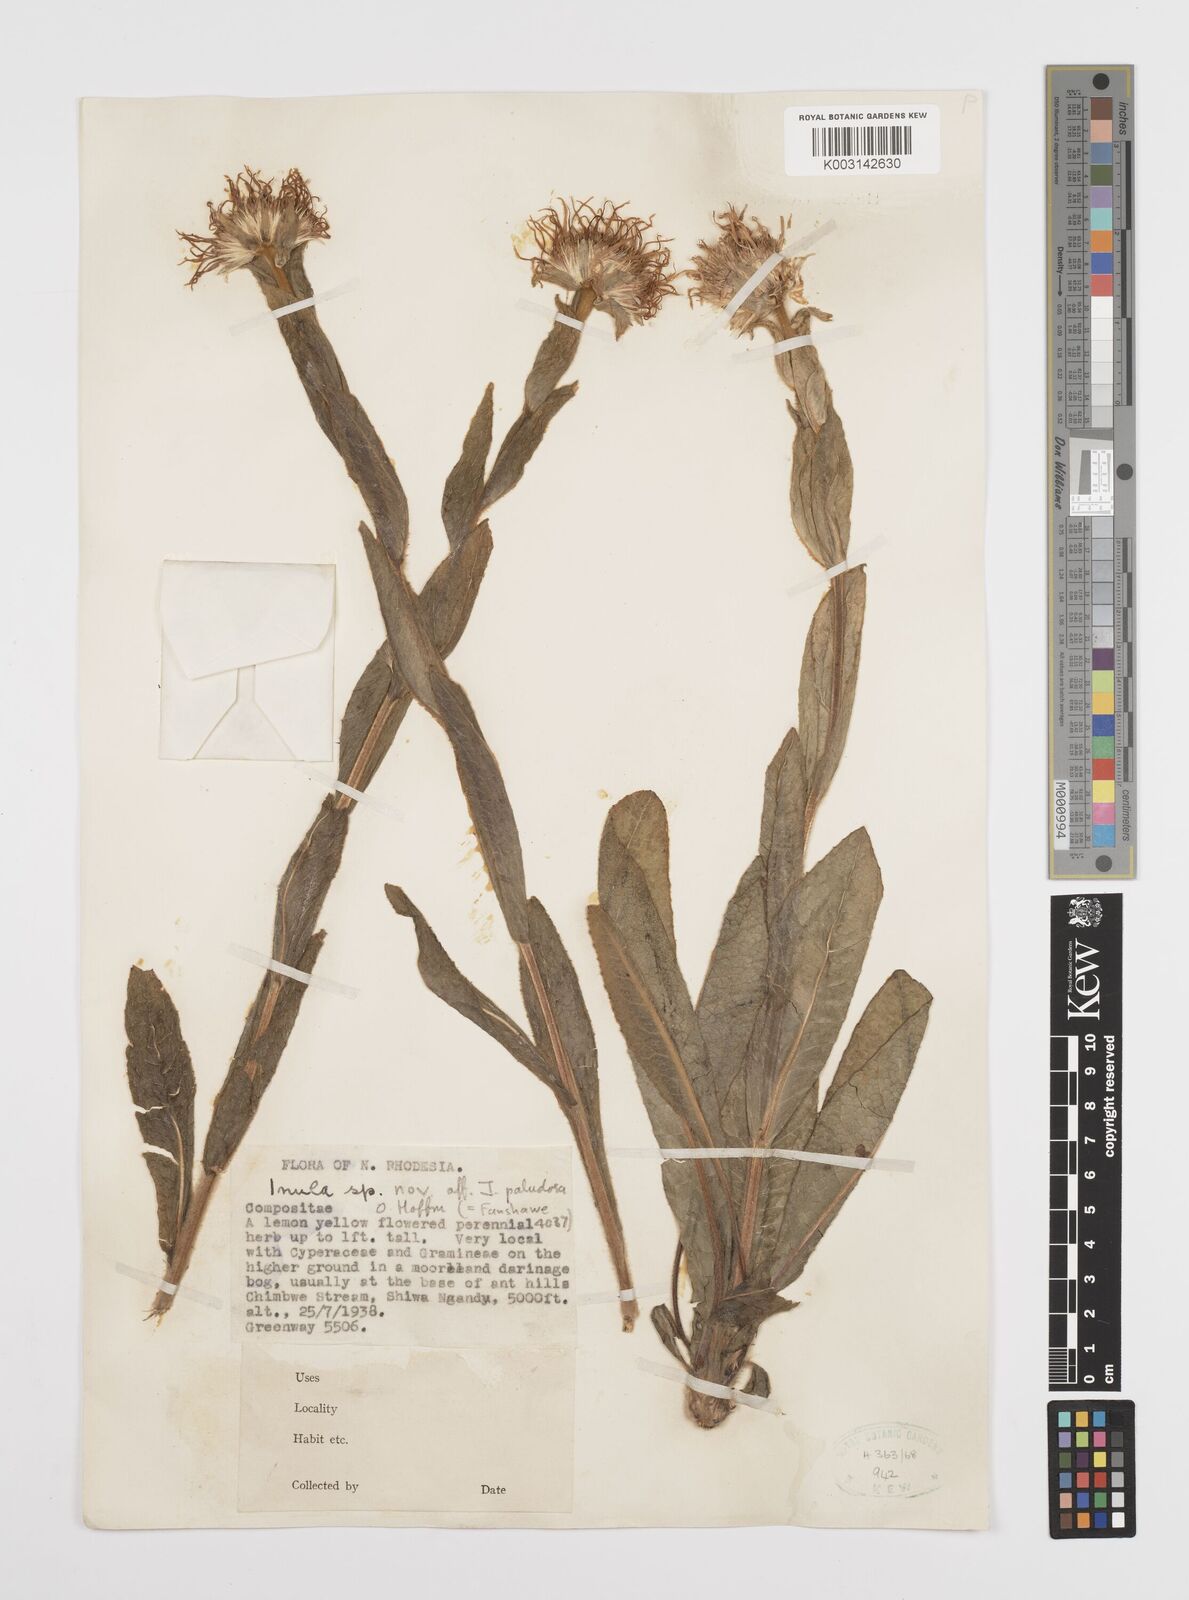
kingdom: Plantae
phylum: Tracheophyta
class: Magnoliopsida
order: Asterales
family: Asteraceae
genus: Inula
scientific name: Inula paludosa
